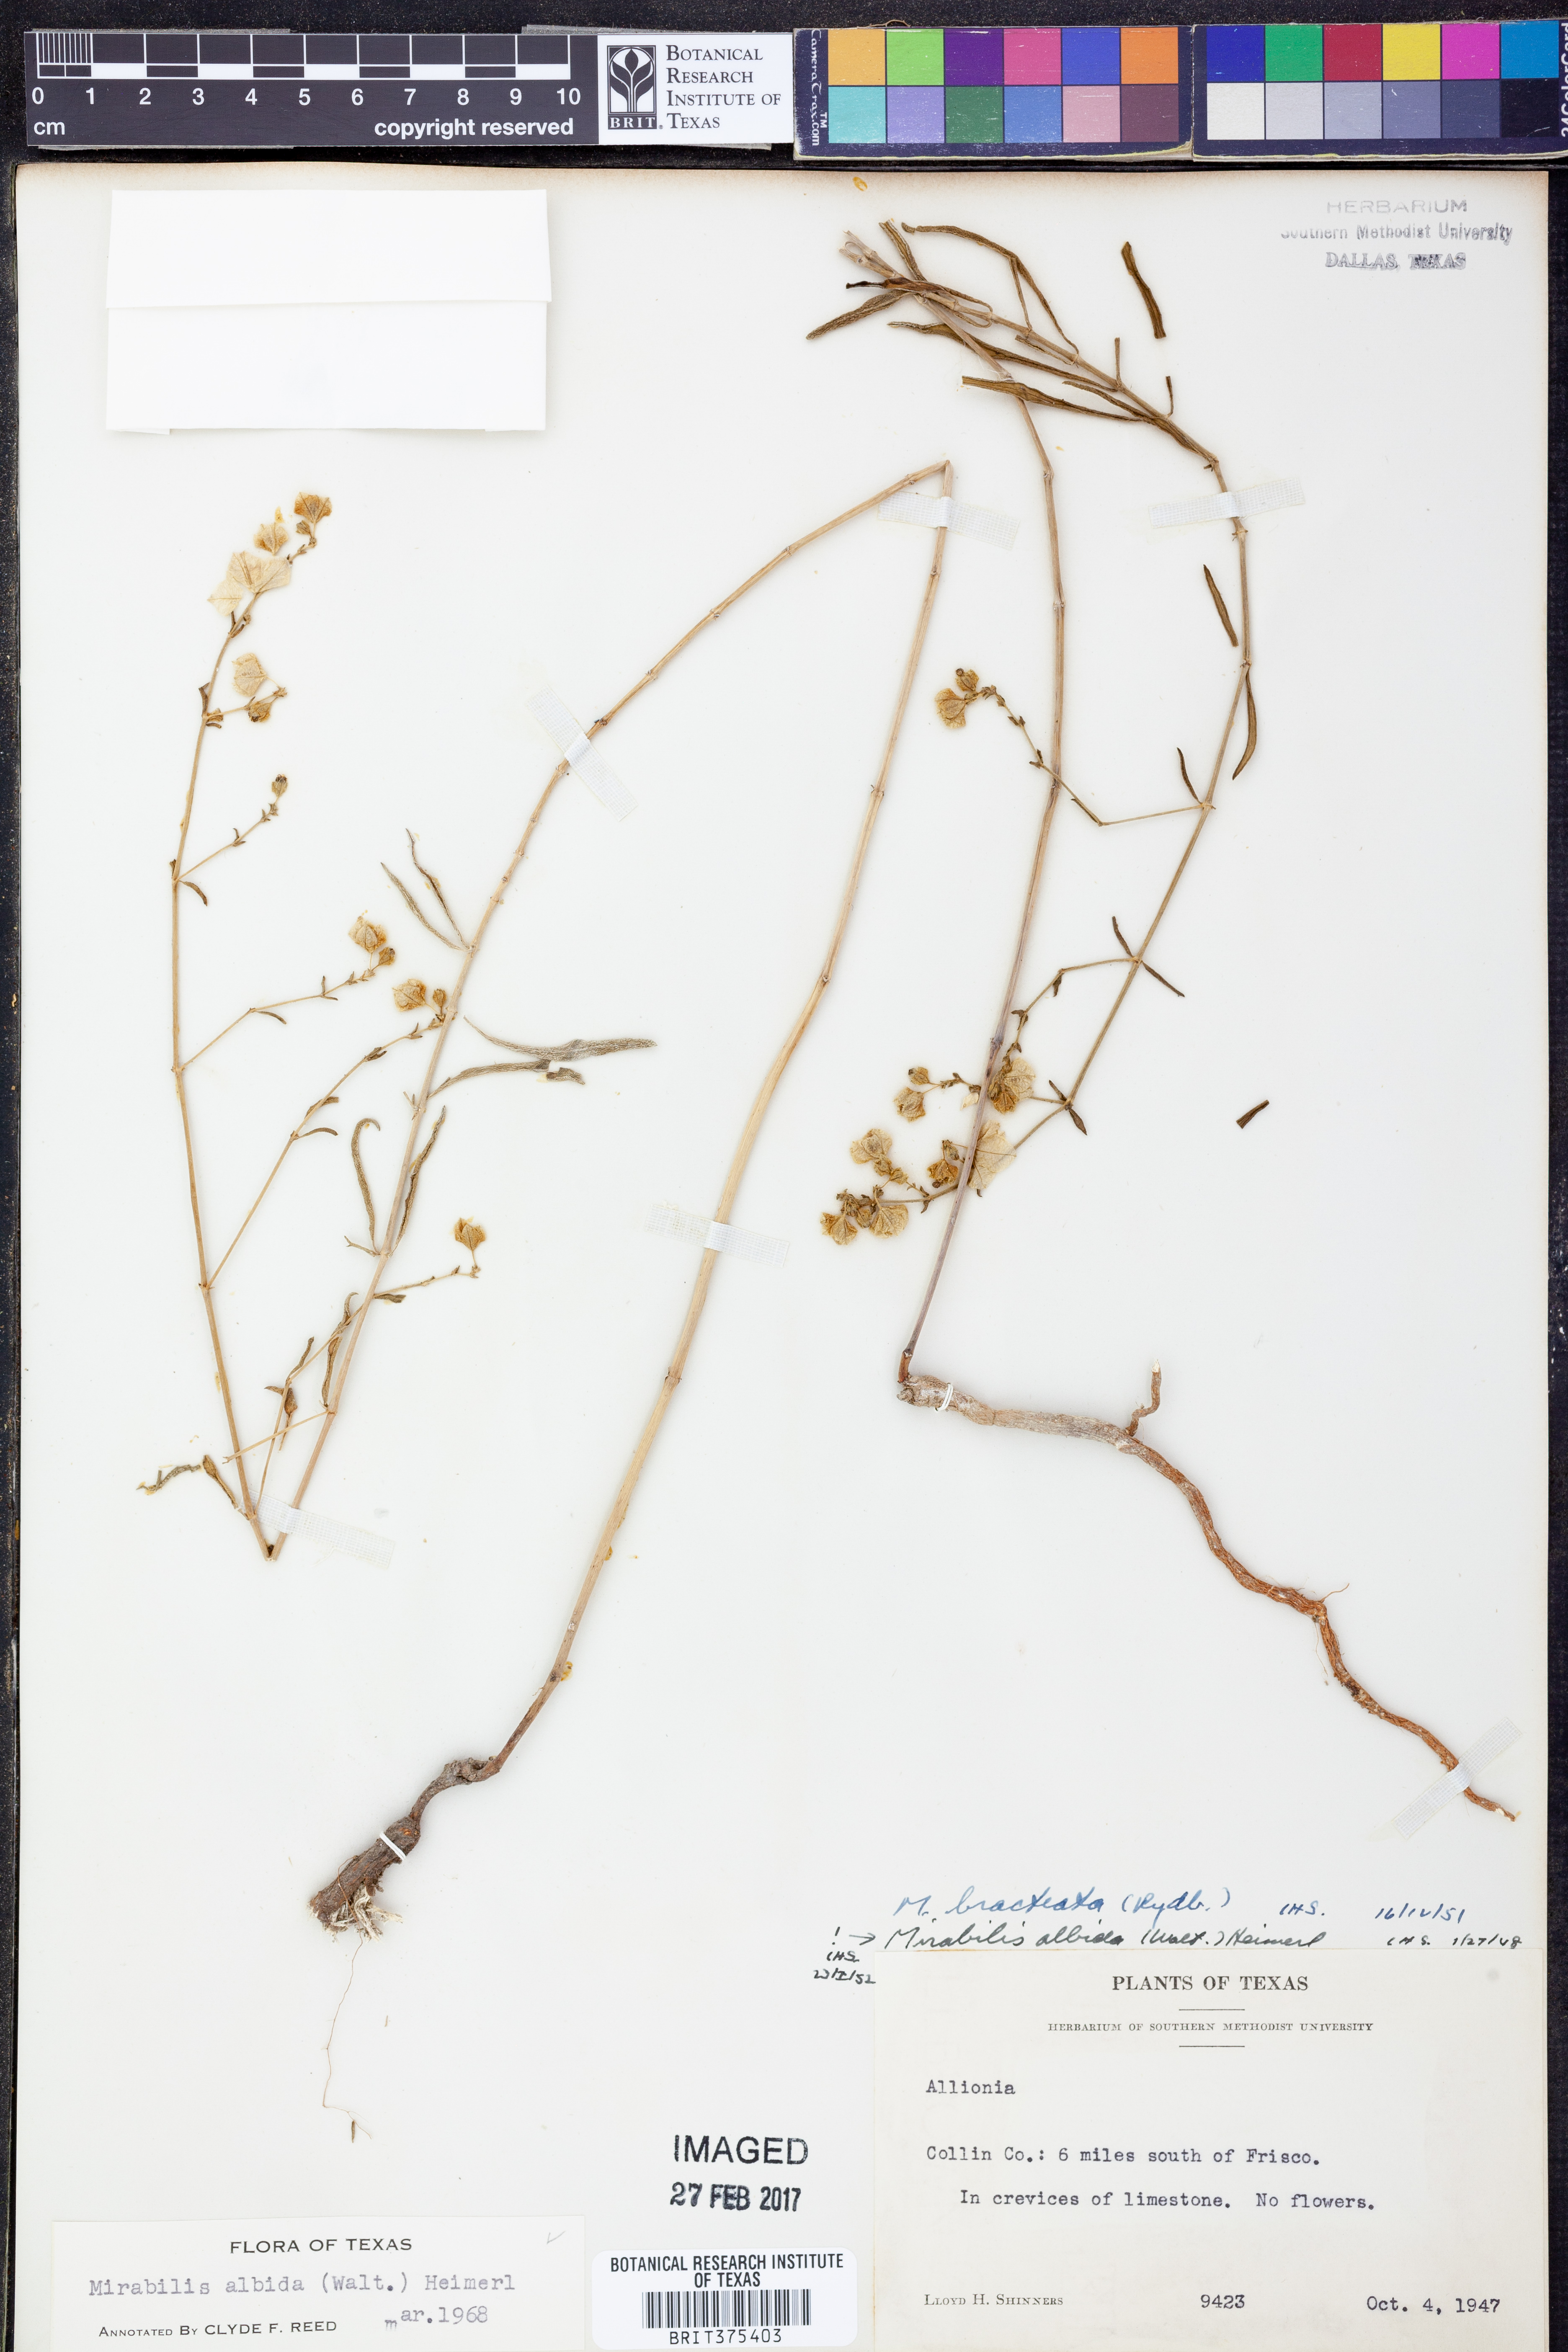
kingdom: Plantae
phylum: Tracheophyta
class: Magnoliopsida
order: Caryophyllales
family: Nyctaginaceae
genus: Mirabilis
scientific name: Mirabilis albida
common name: Hairy four-o'clock
